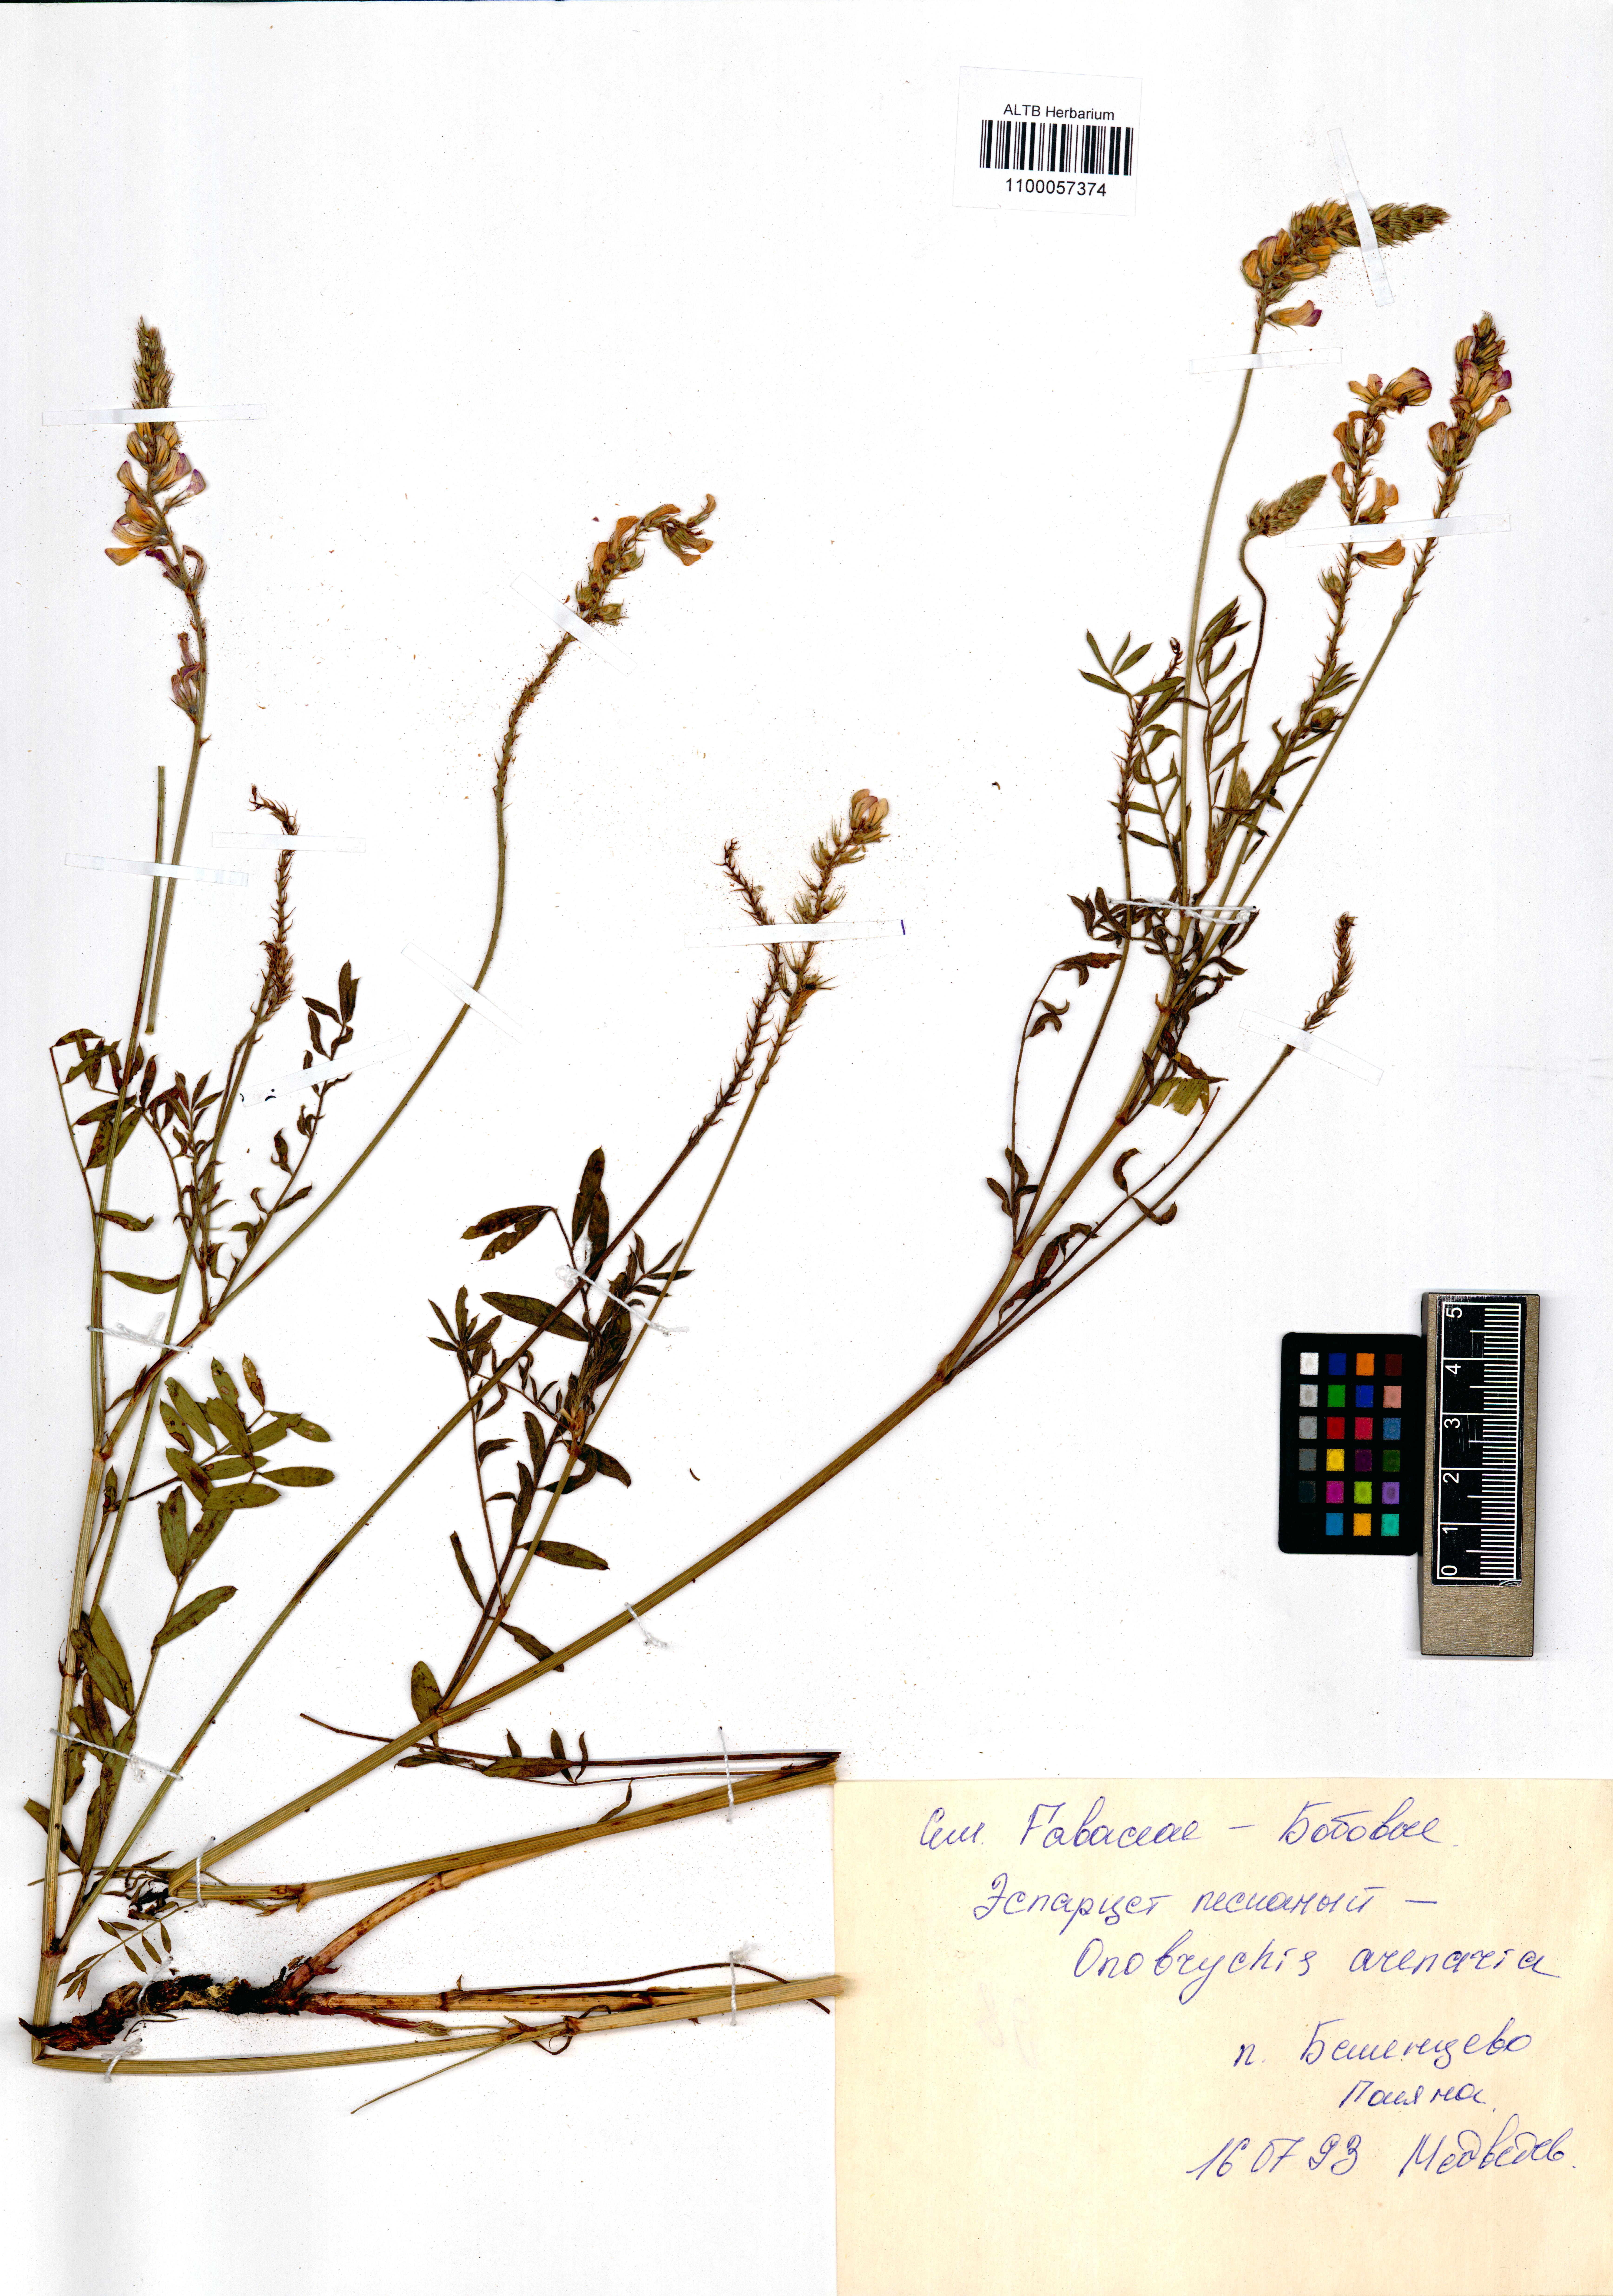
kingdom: Plantae
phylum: Tracheophyta
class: Magnoliopsida
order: Fabales
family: Fabaceae
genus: Onobrychis
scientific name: Onobrychis arenaria
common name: Sand esparcet
